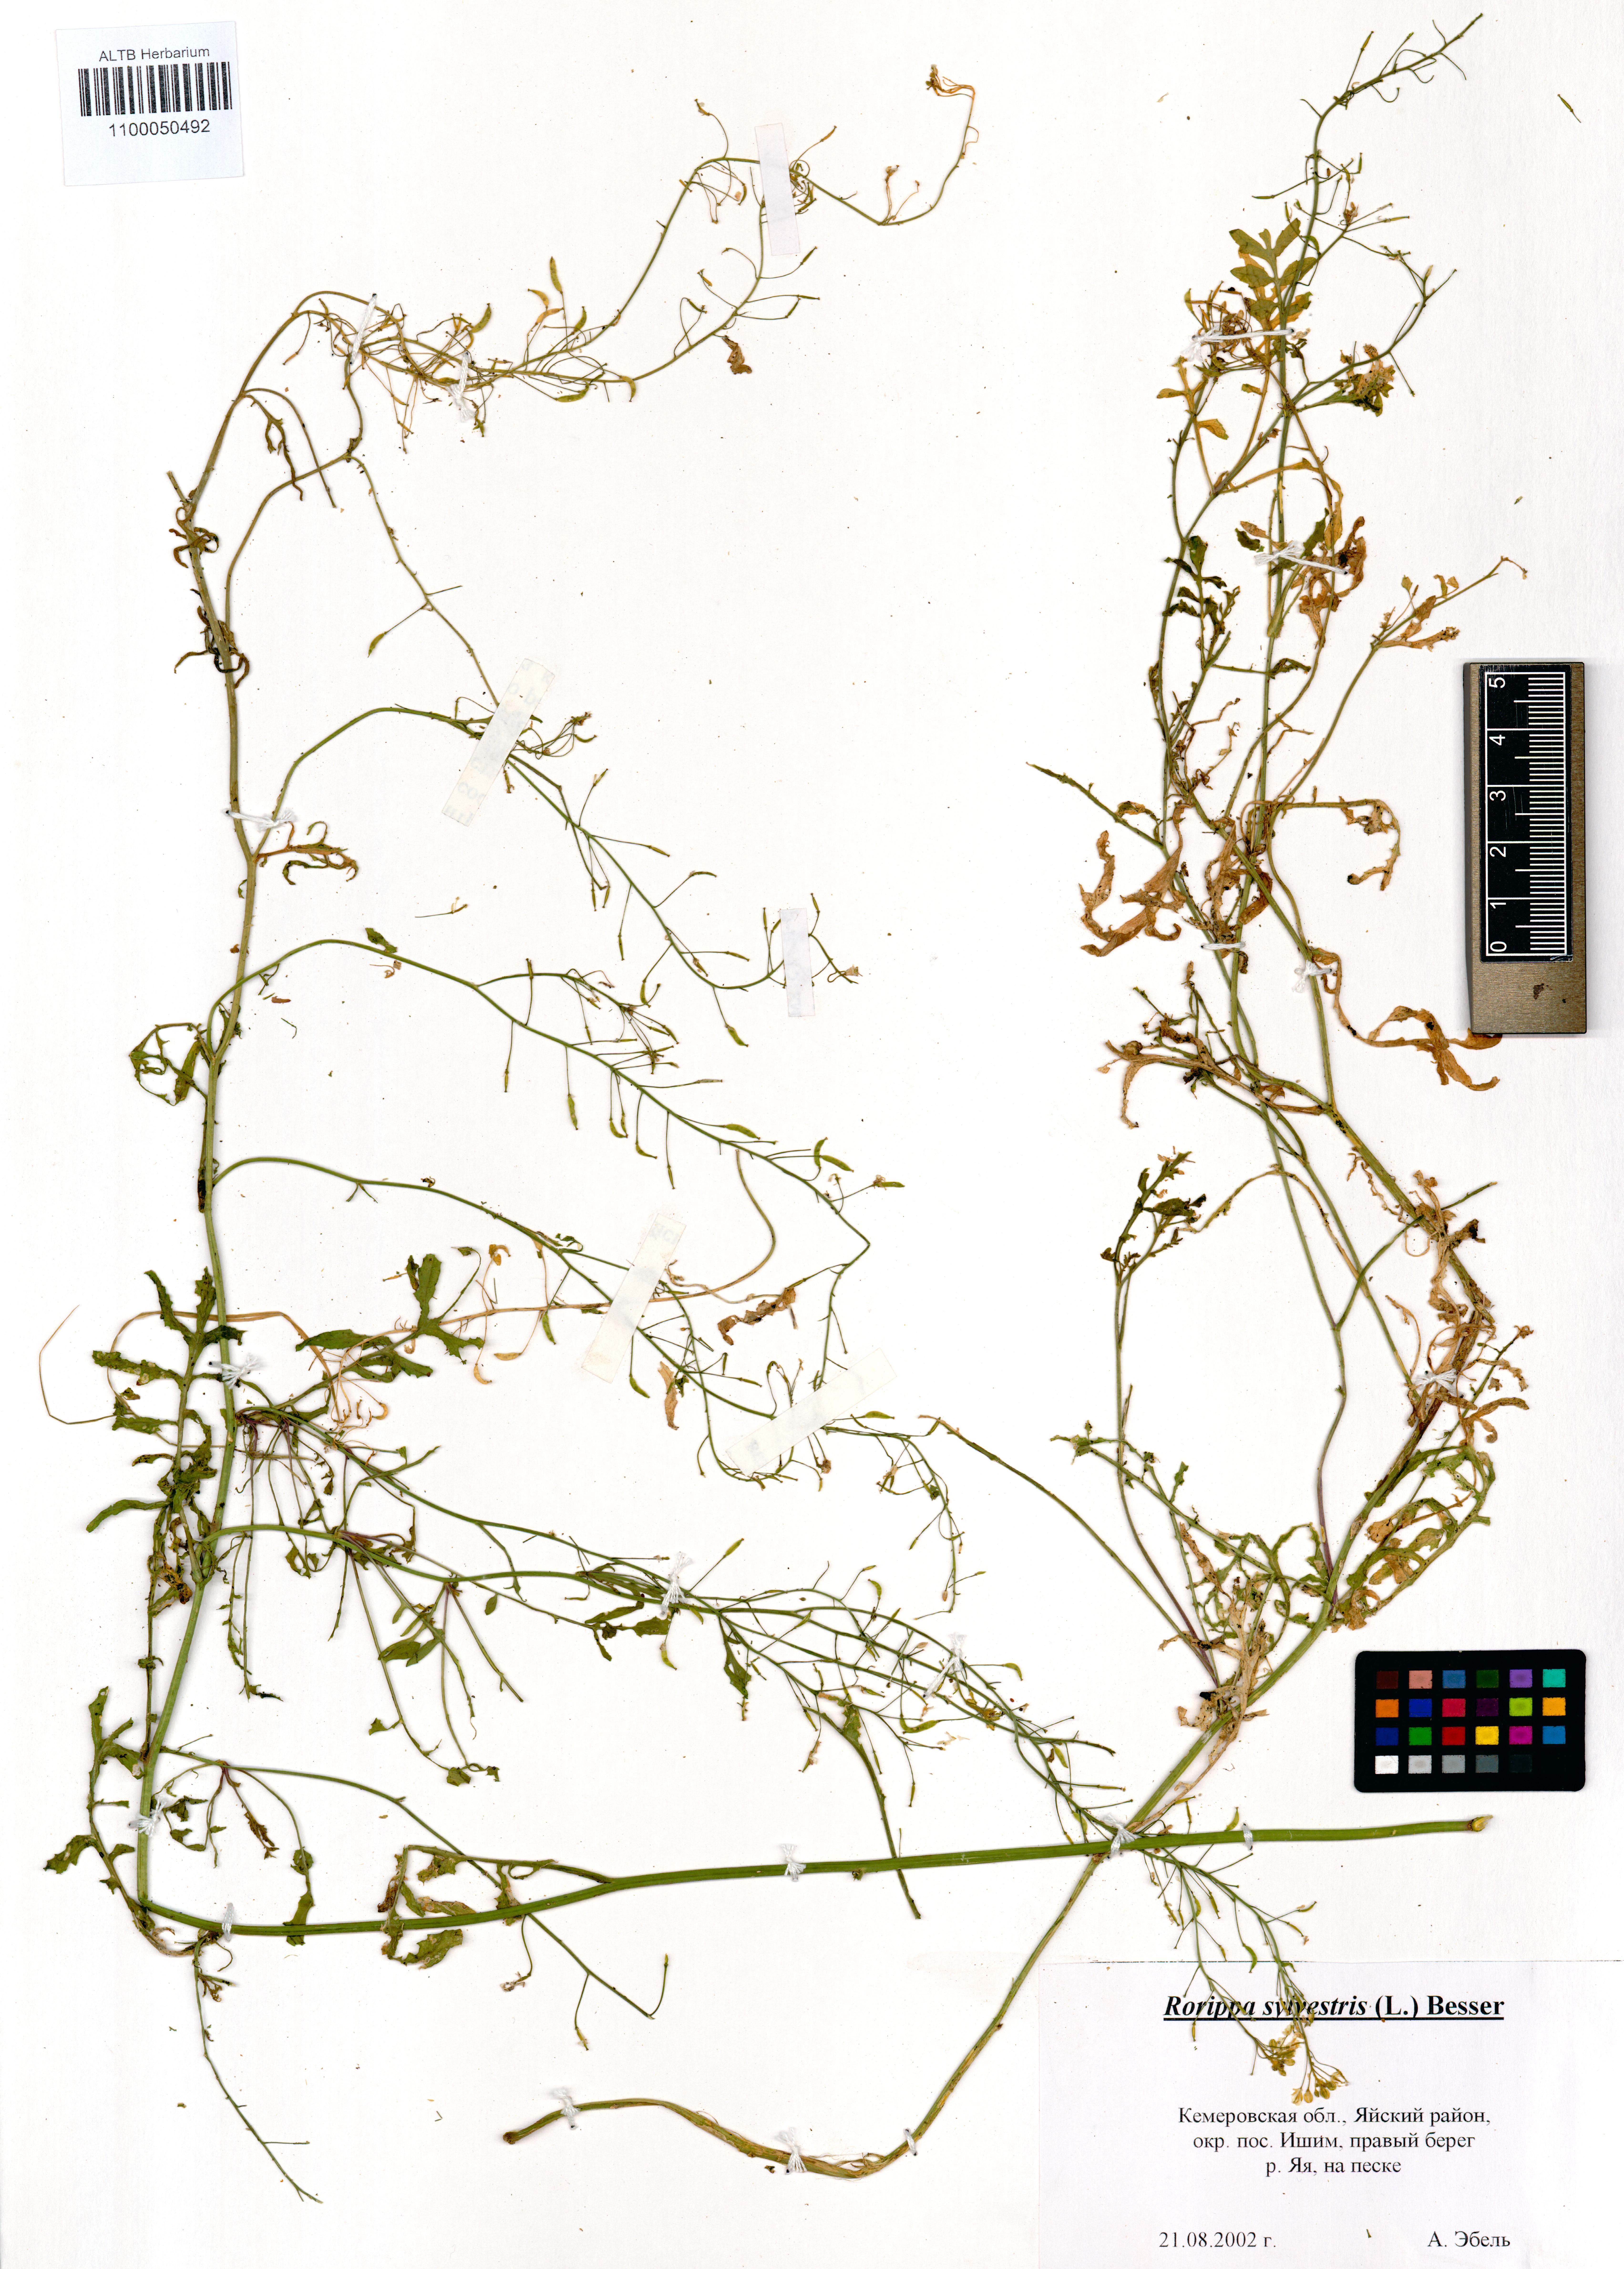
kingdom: Plantae
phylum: Tracheophyta
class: Magnoliopsida
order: Brassicales
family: Brassicaceae
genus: Rorippa
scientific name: Rorippa sylvestris
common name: Creeping yellowcress
